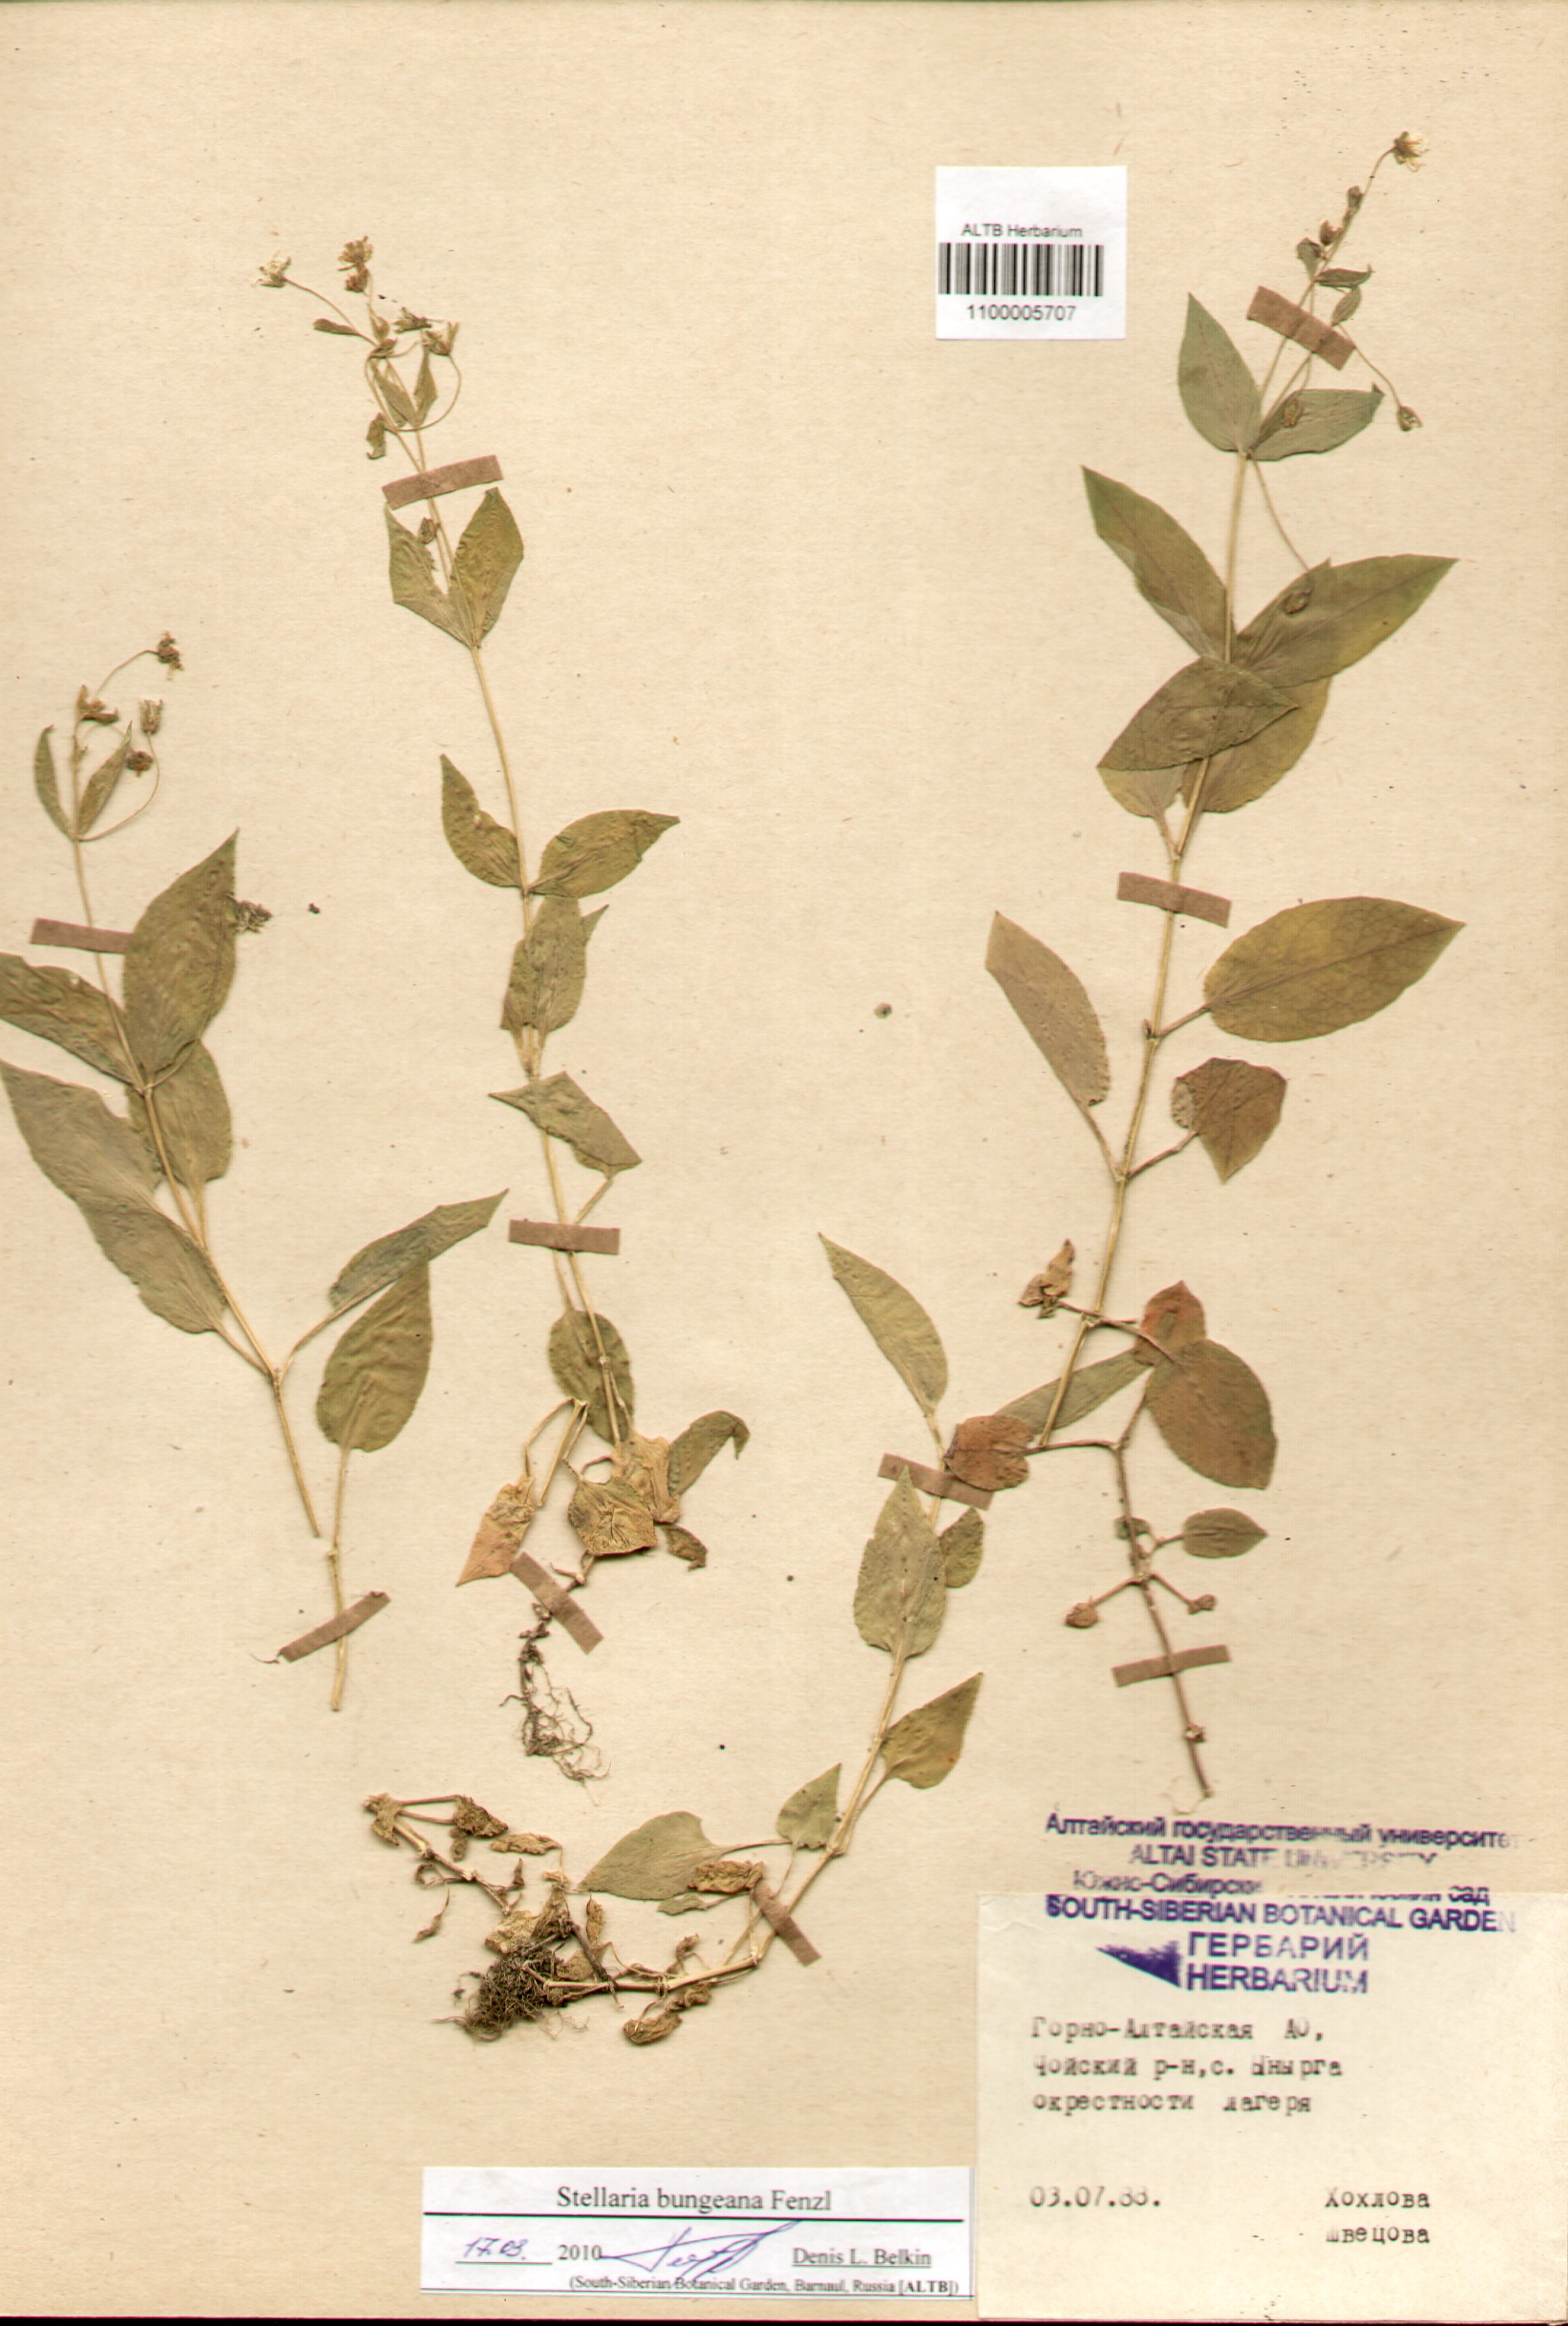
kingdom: Plantae
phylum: Tracheophyta
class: Magnoliopsida
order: Caryophyllales
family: Caryophyllaceae
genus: Stellaria
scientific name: Stellaria bungeana
